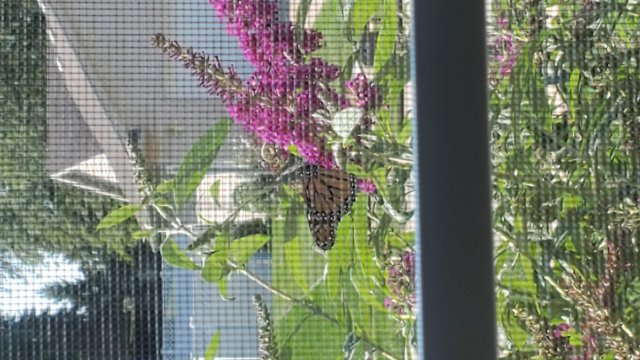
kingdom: Animalia
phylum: Arthropoda
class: Insecta
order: Lepidoptera
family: Nymphalidae
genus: Danaus
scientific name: Danaus plexippus
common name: Monarch
